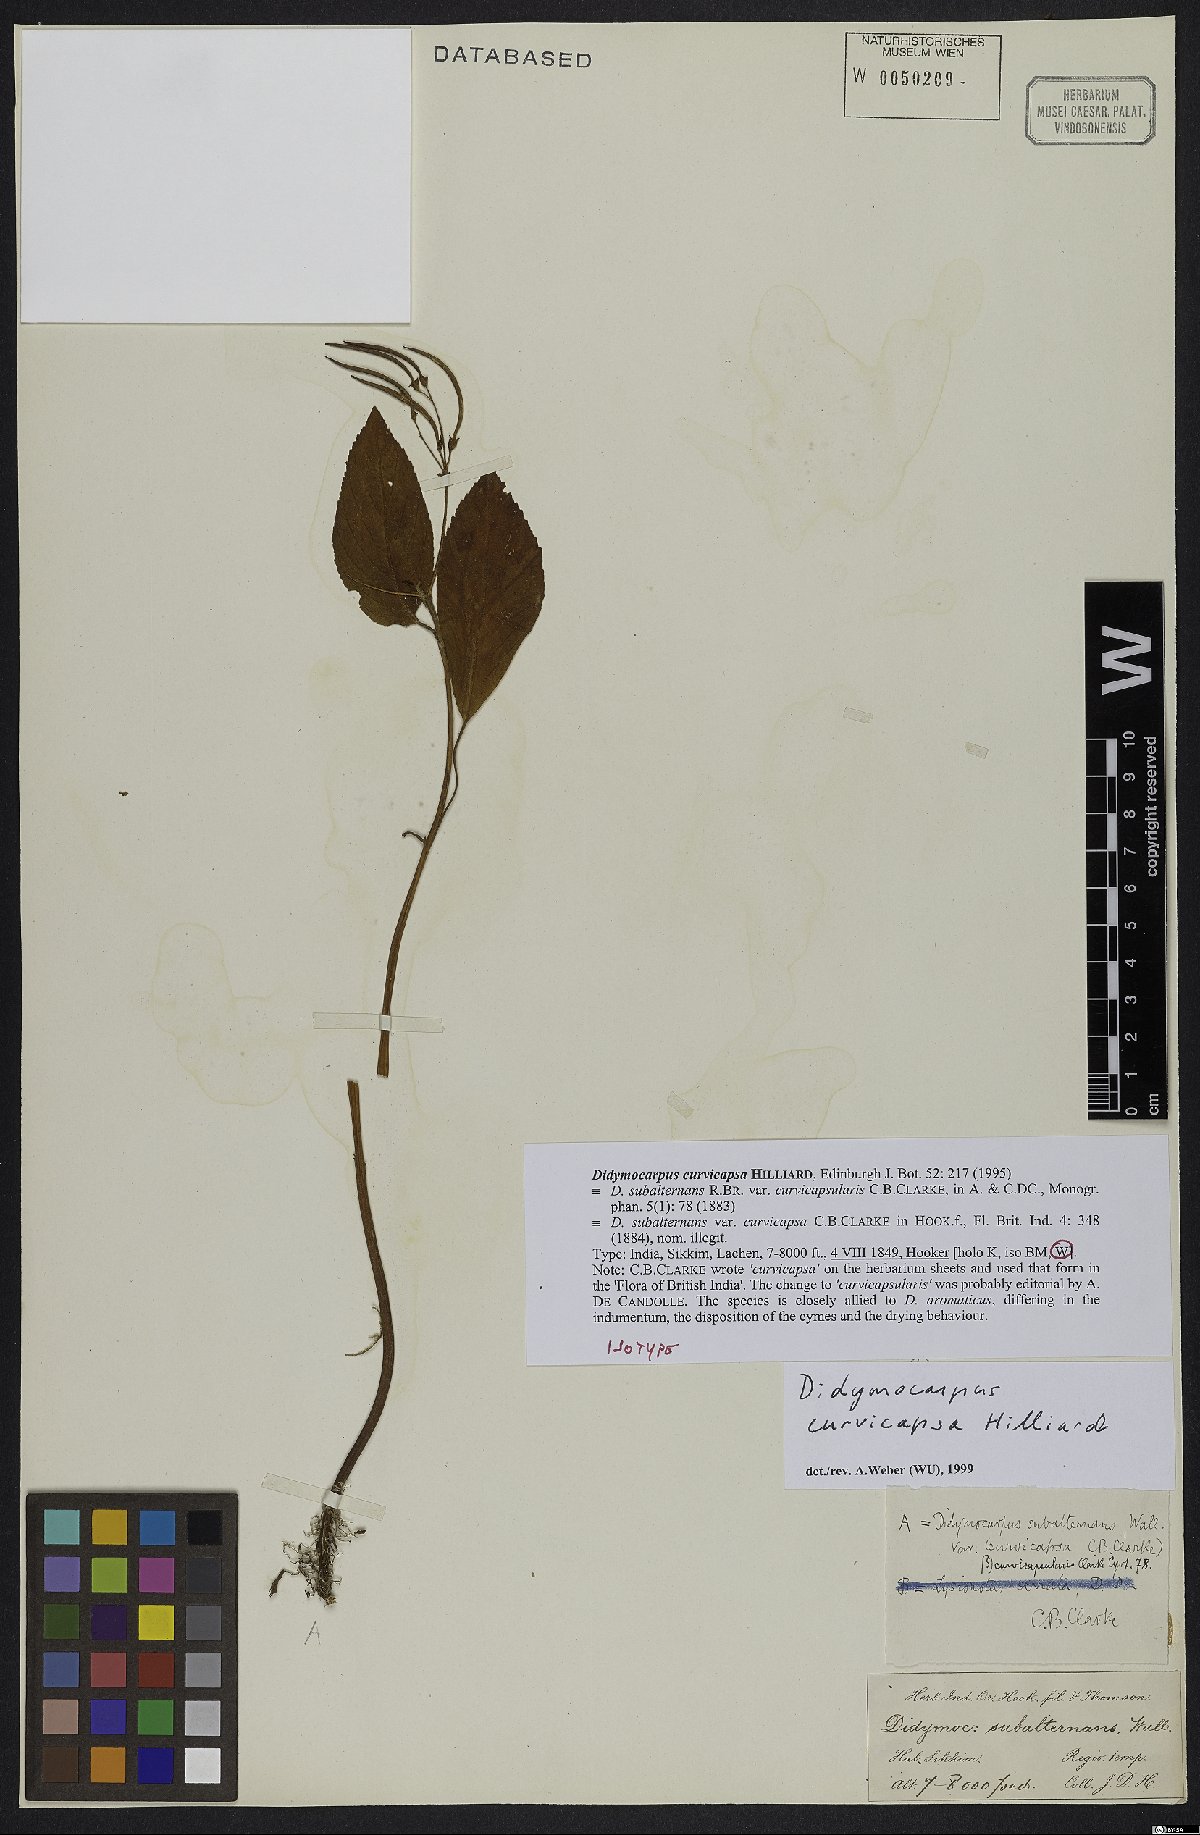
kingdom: Plantae
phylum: Tracheophyta
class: Magnoliopsida
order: Lamiales
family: Gesneriaceae
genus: Didymocarpus
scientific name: Didymocarpus curvicapsa
